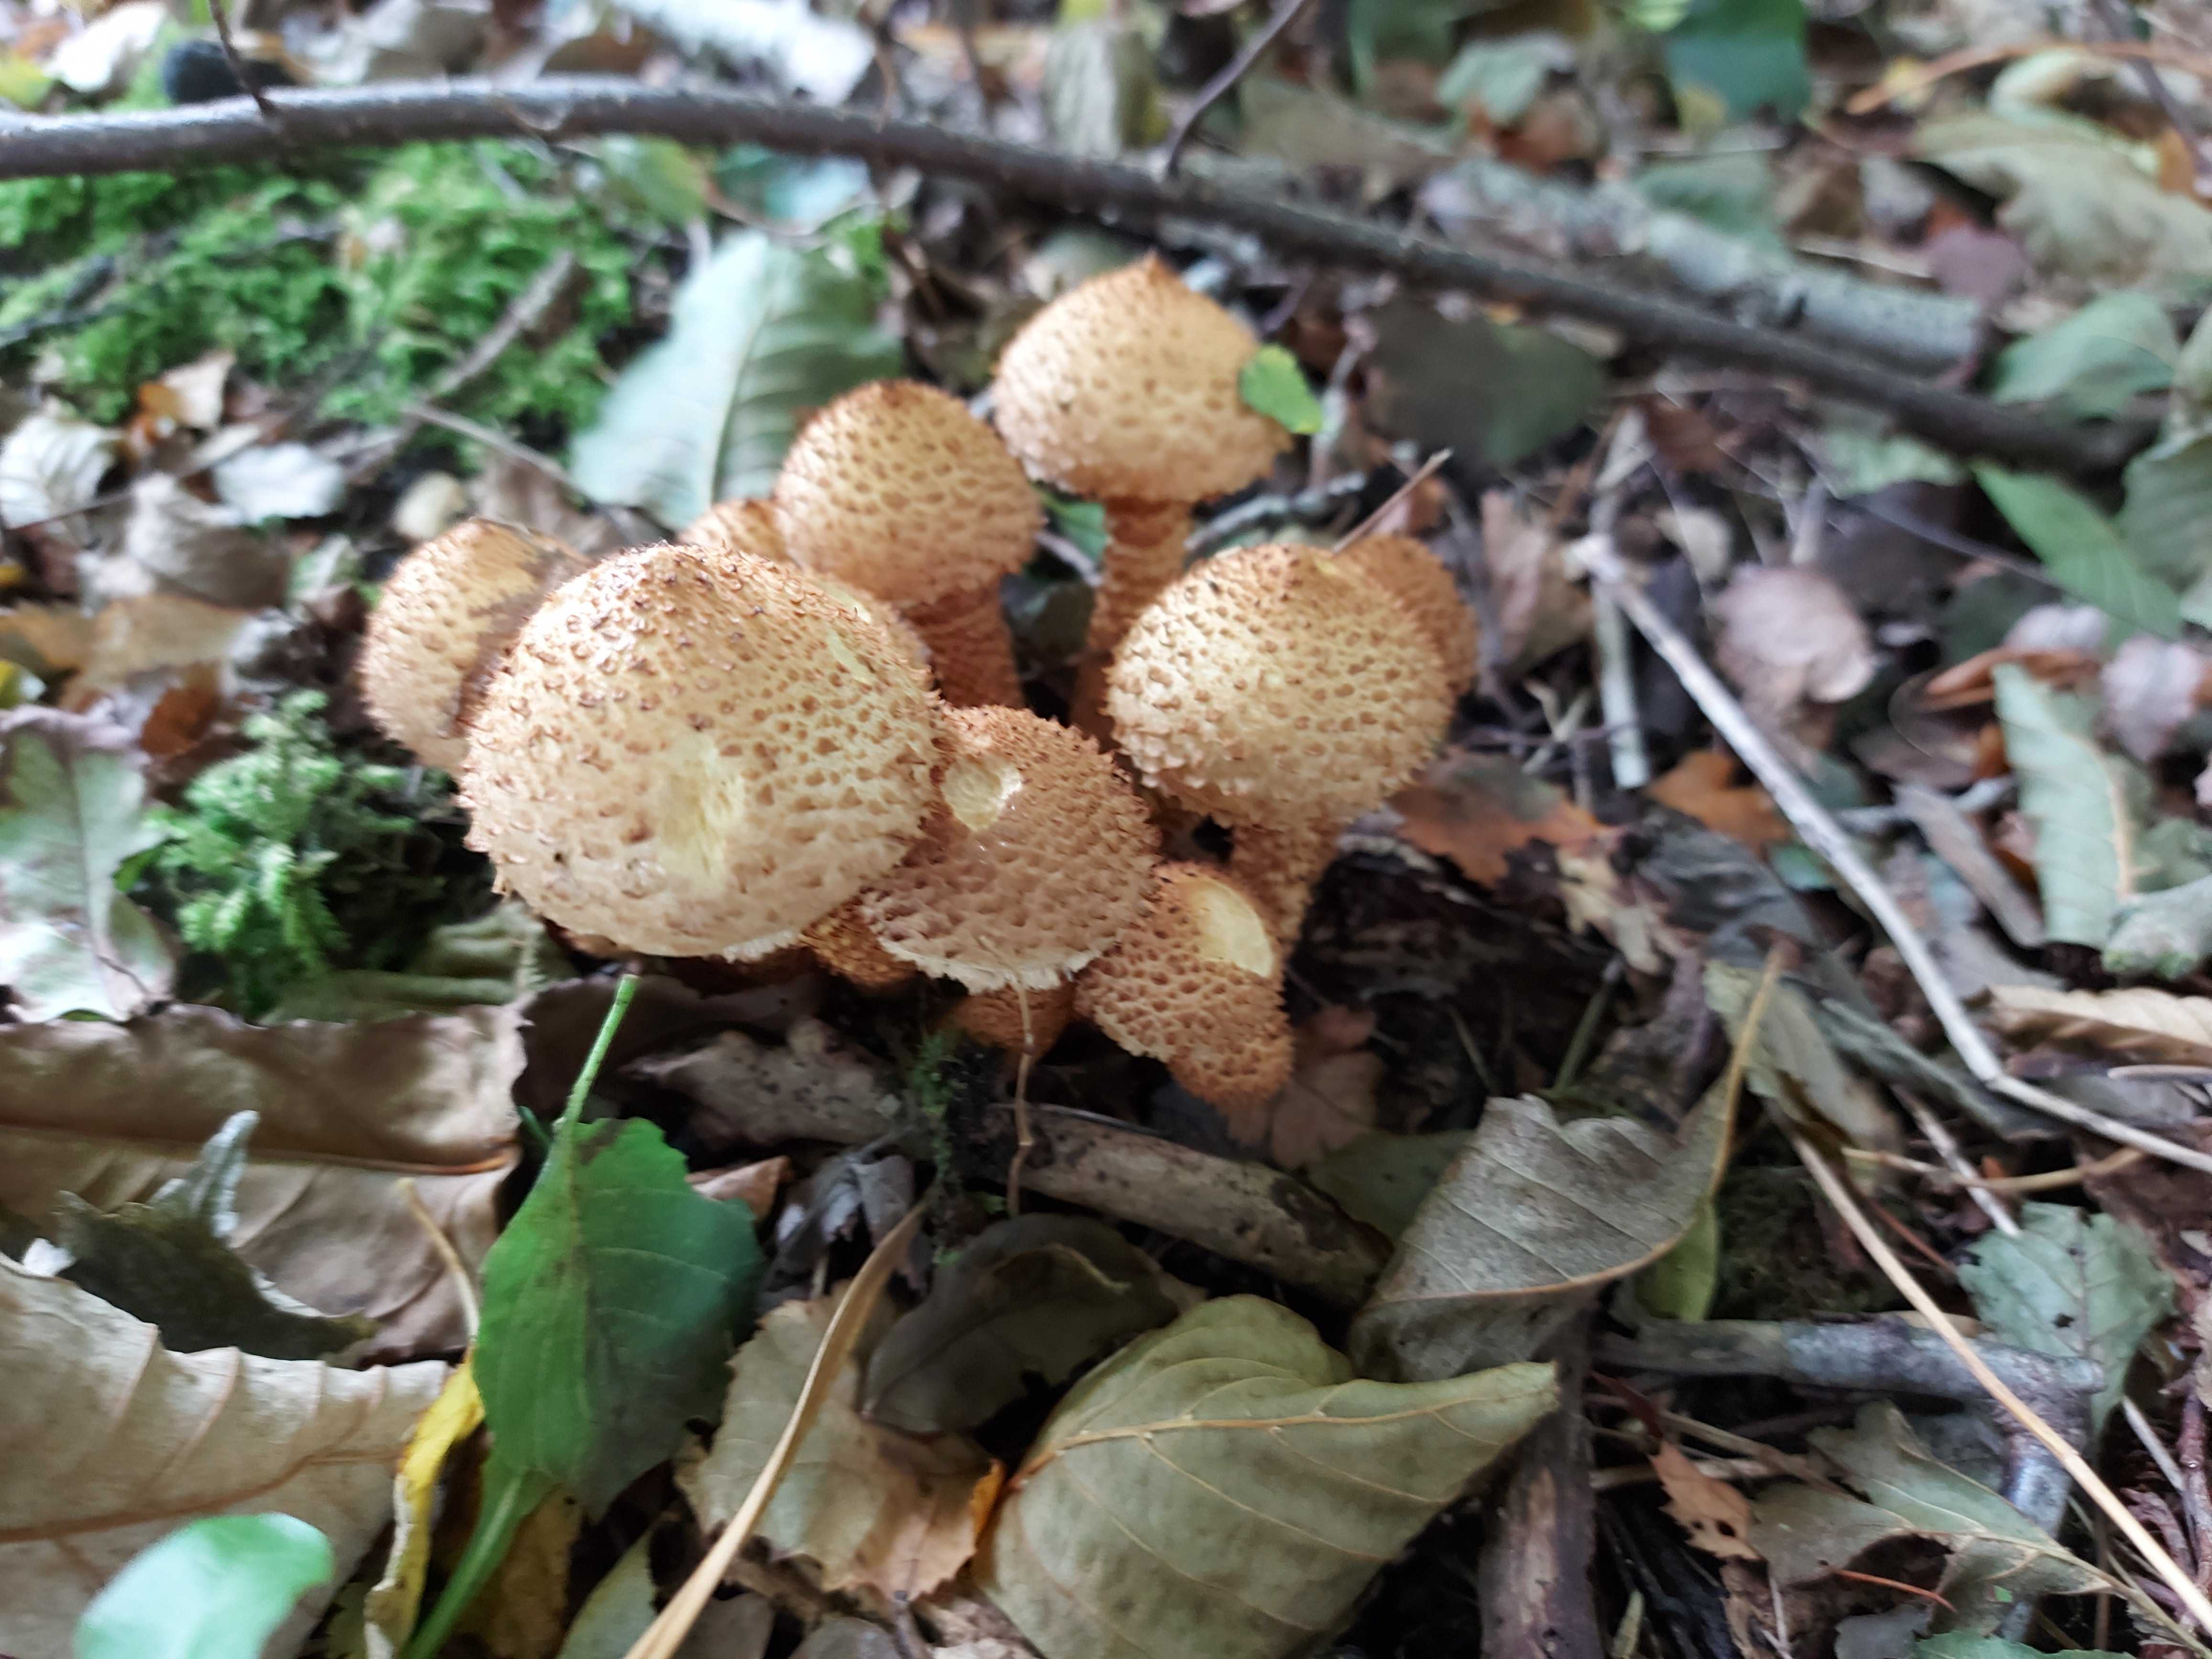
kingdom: Fungi
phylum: Basidiomycota
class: Agaricomycetes
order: Agaricales
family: Strophariaceae
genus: Pholiota
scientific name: Pholiota squarrosa
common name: krumskællet skælhat
